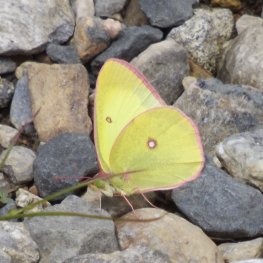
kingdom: Animalia
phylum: Arthropoda
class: Insecta
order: Lepidoptera
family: Pieridae
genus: Colias
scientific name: Colias interior
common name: Pink-edged Sulphur
